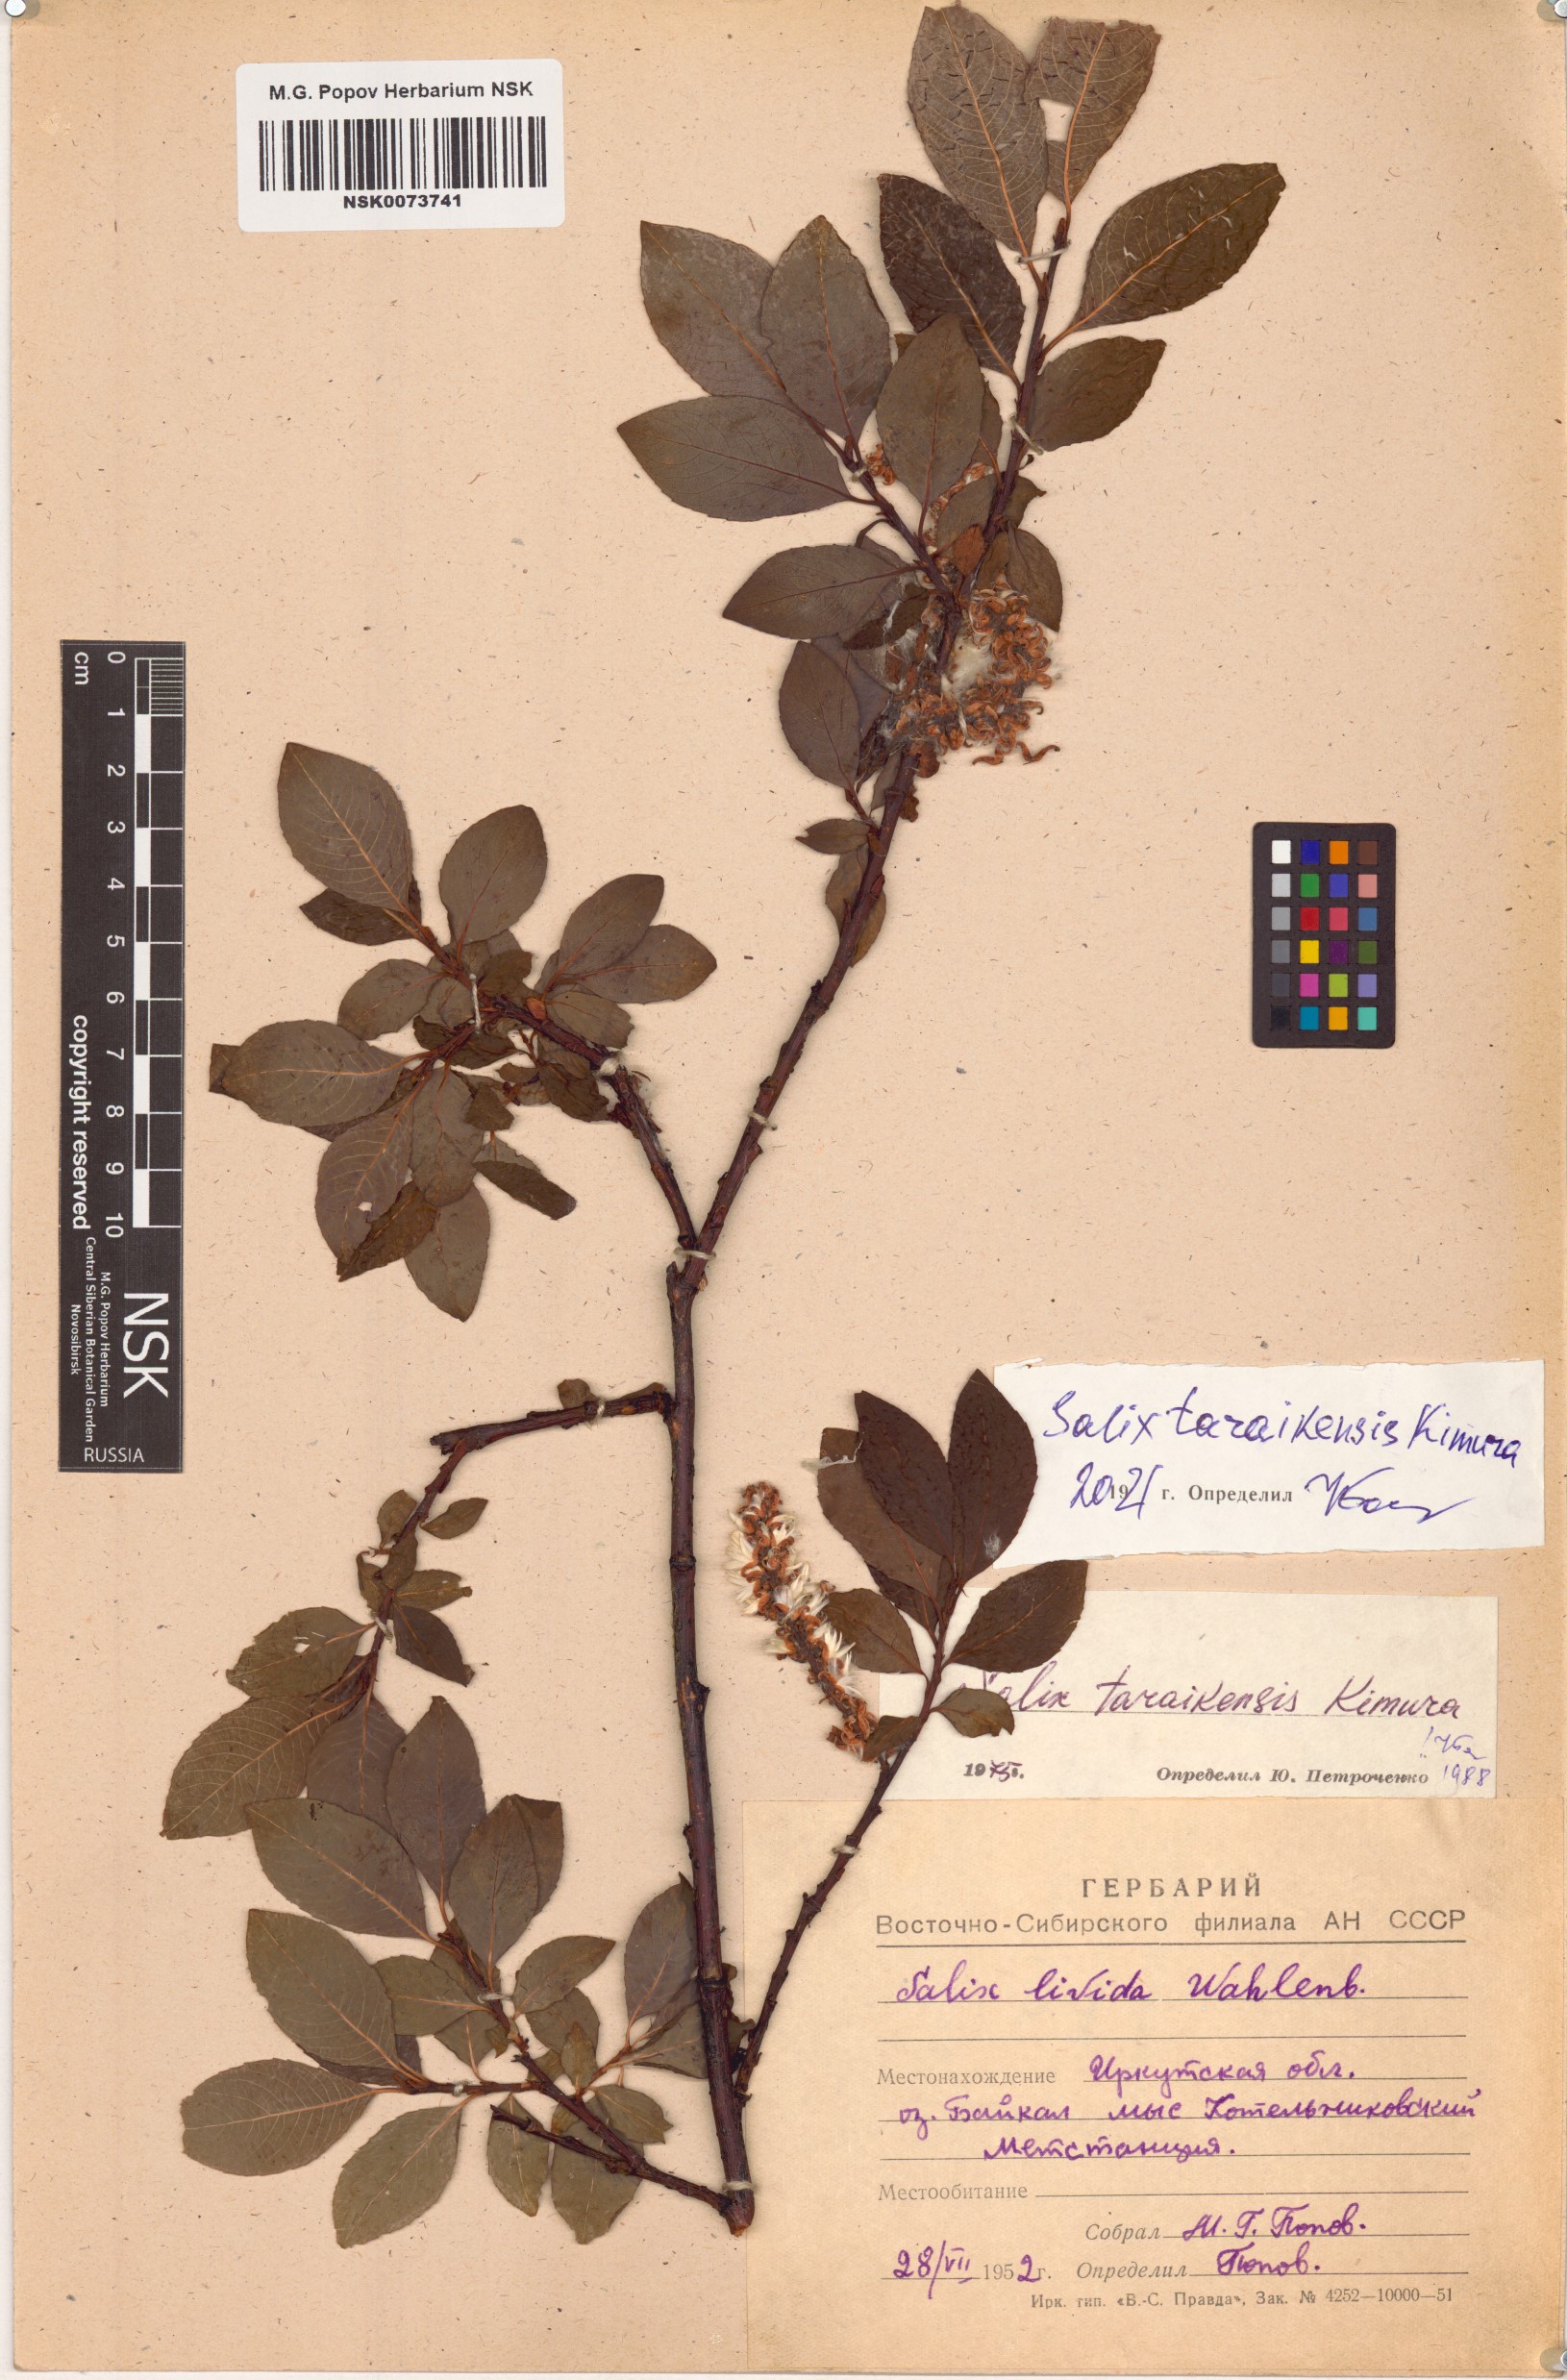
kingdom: Plantae
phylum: Tracheophyta
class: Magnoliopsida
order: Malpighiales
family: Salicaceae
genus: Salix
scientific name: Salix taraikensis
